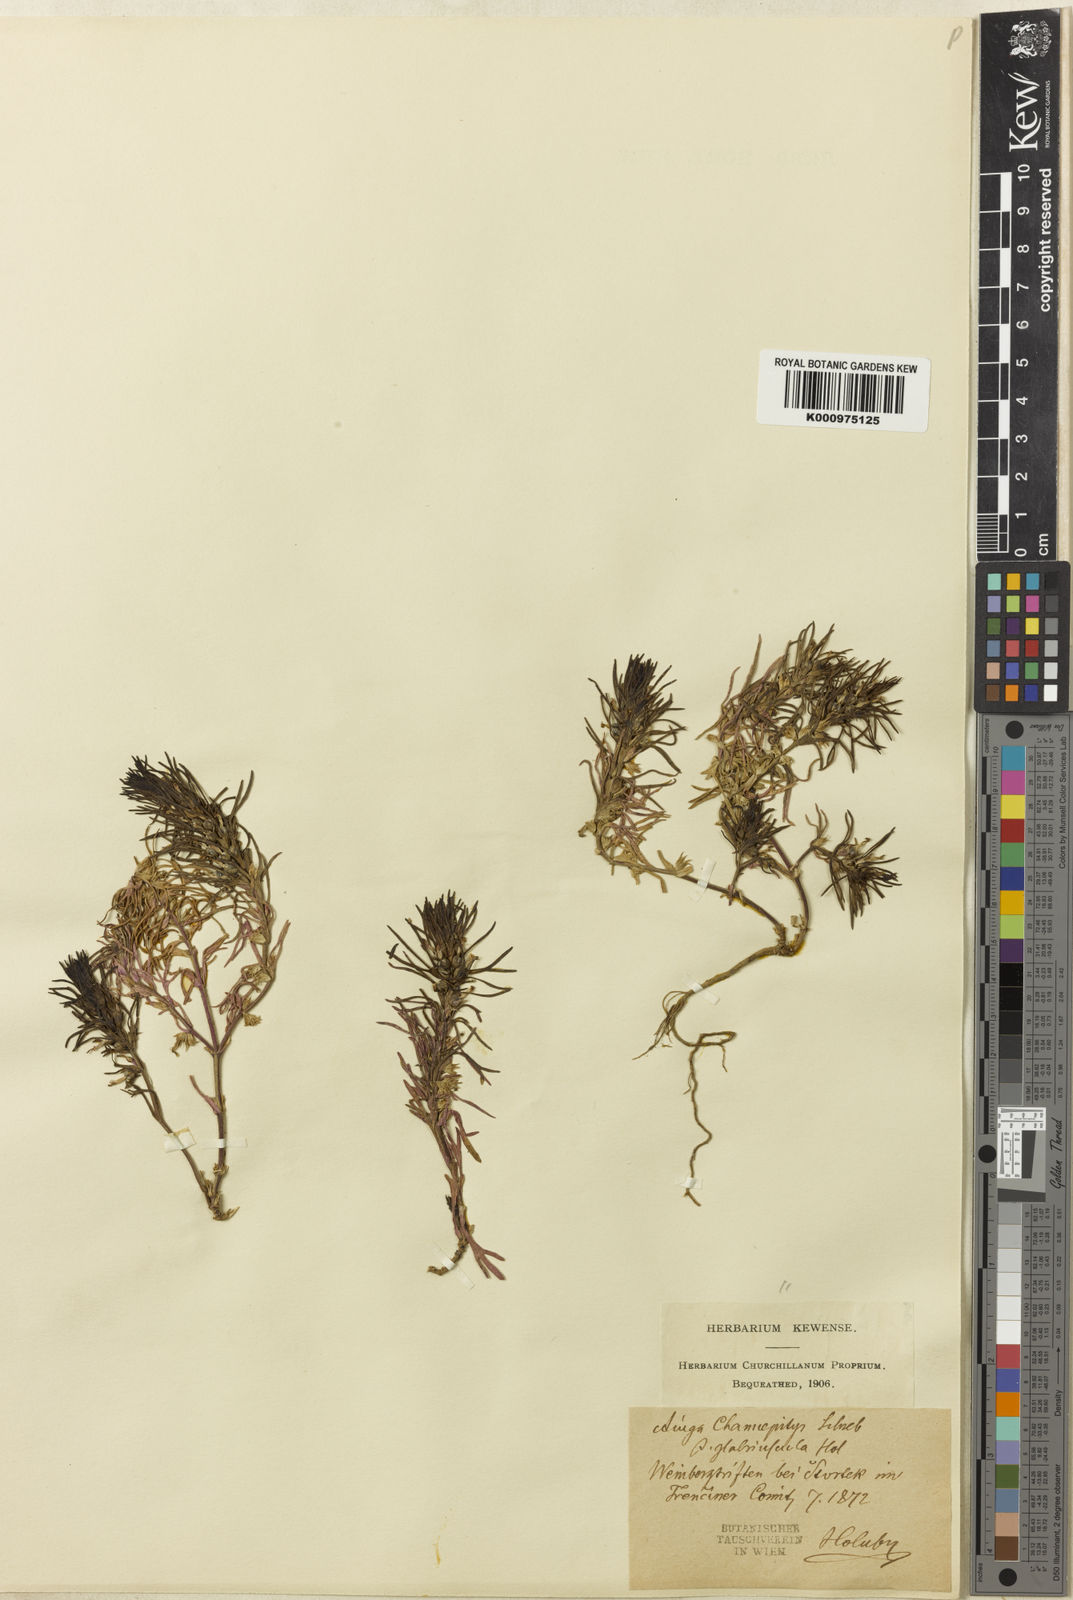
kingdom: Plantae
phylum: Tracheophyta
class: Magnoliopsida
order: Lamiales
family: Lamiaceae
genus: Ajuga
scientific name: Ajuga chamaepitys
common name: Ground-pine
